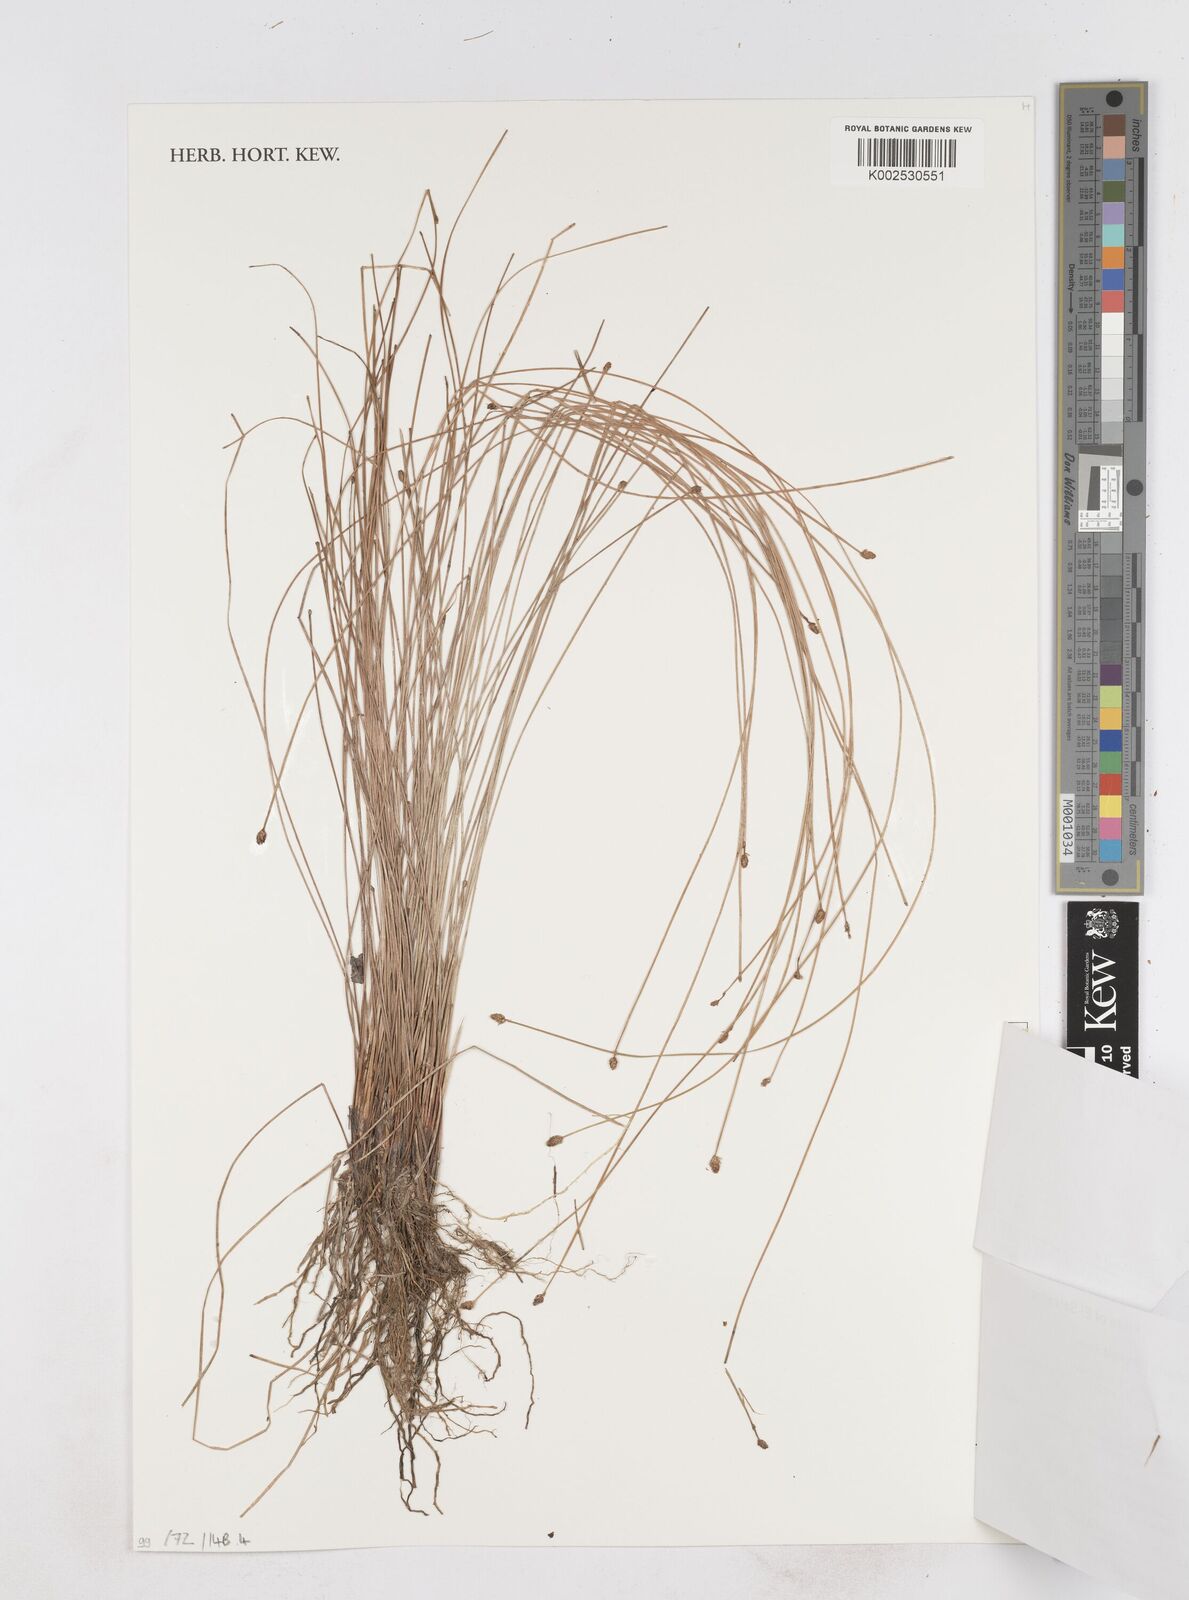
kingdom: Plantae
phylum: Tracheophyta
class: Liliopsida
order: Poales
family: Cyperaceae
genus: Eleocharis
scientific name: Eleocharis filiculmis
